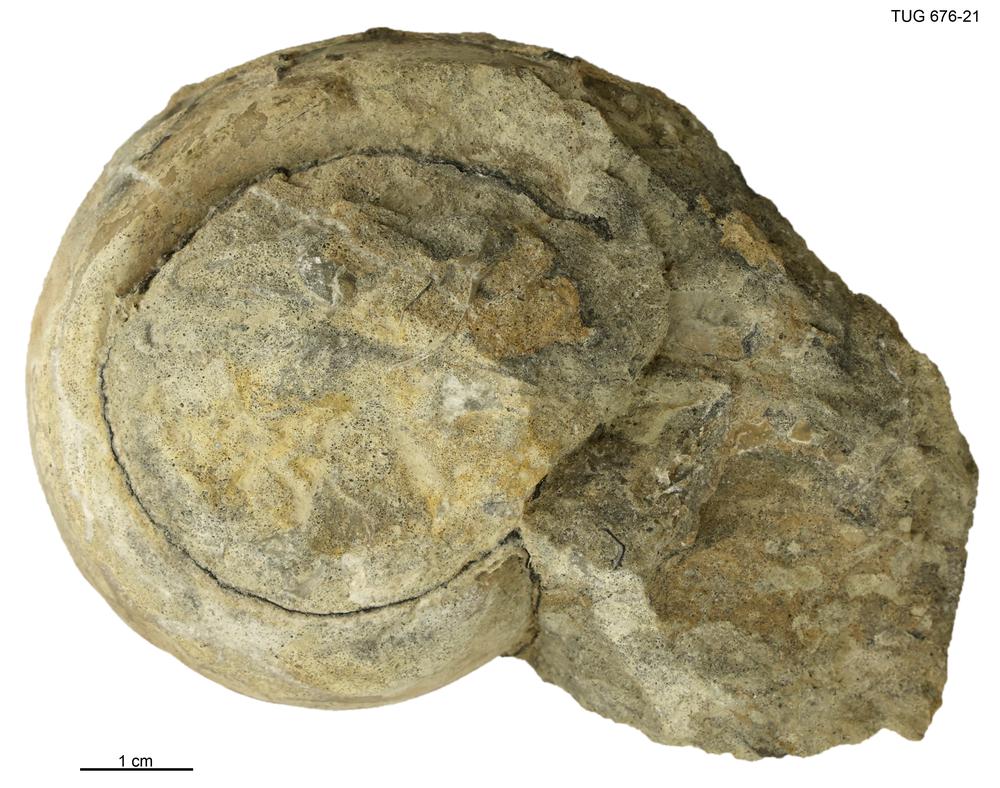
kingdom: Animalia
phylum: Mollusca
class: Gastropoda
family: Lesueurillidae
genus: Lesueurilla
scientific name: Lesueurilla Maclurea infundibulum
